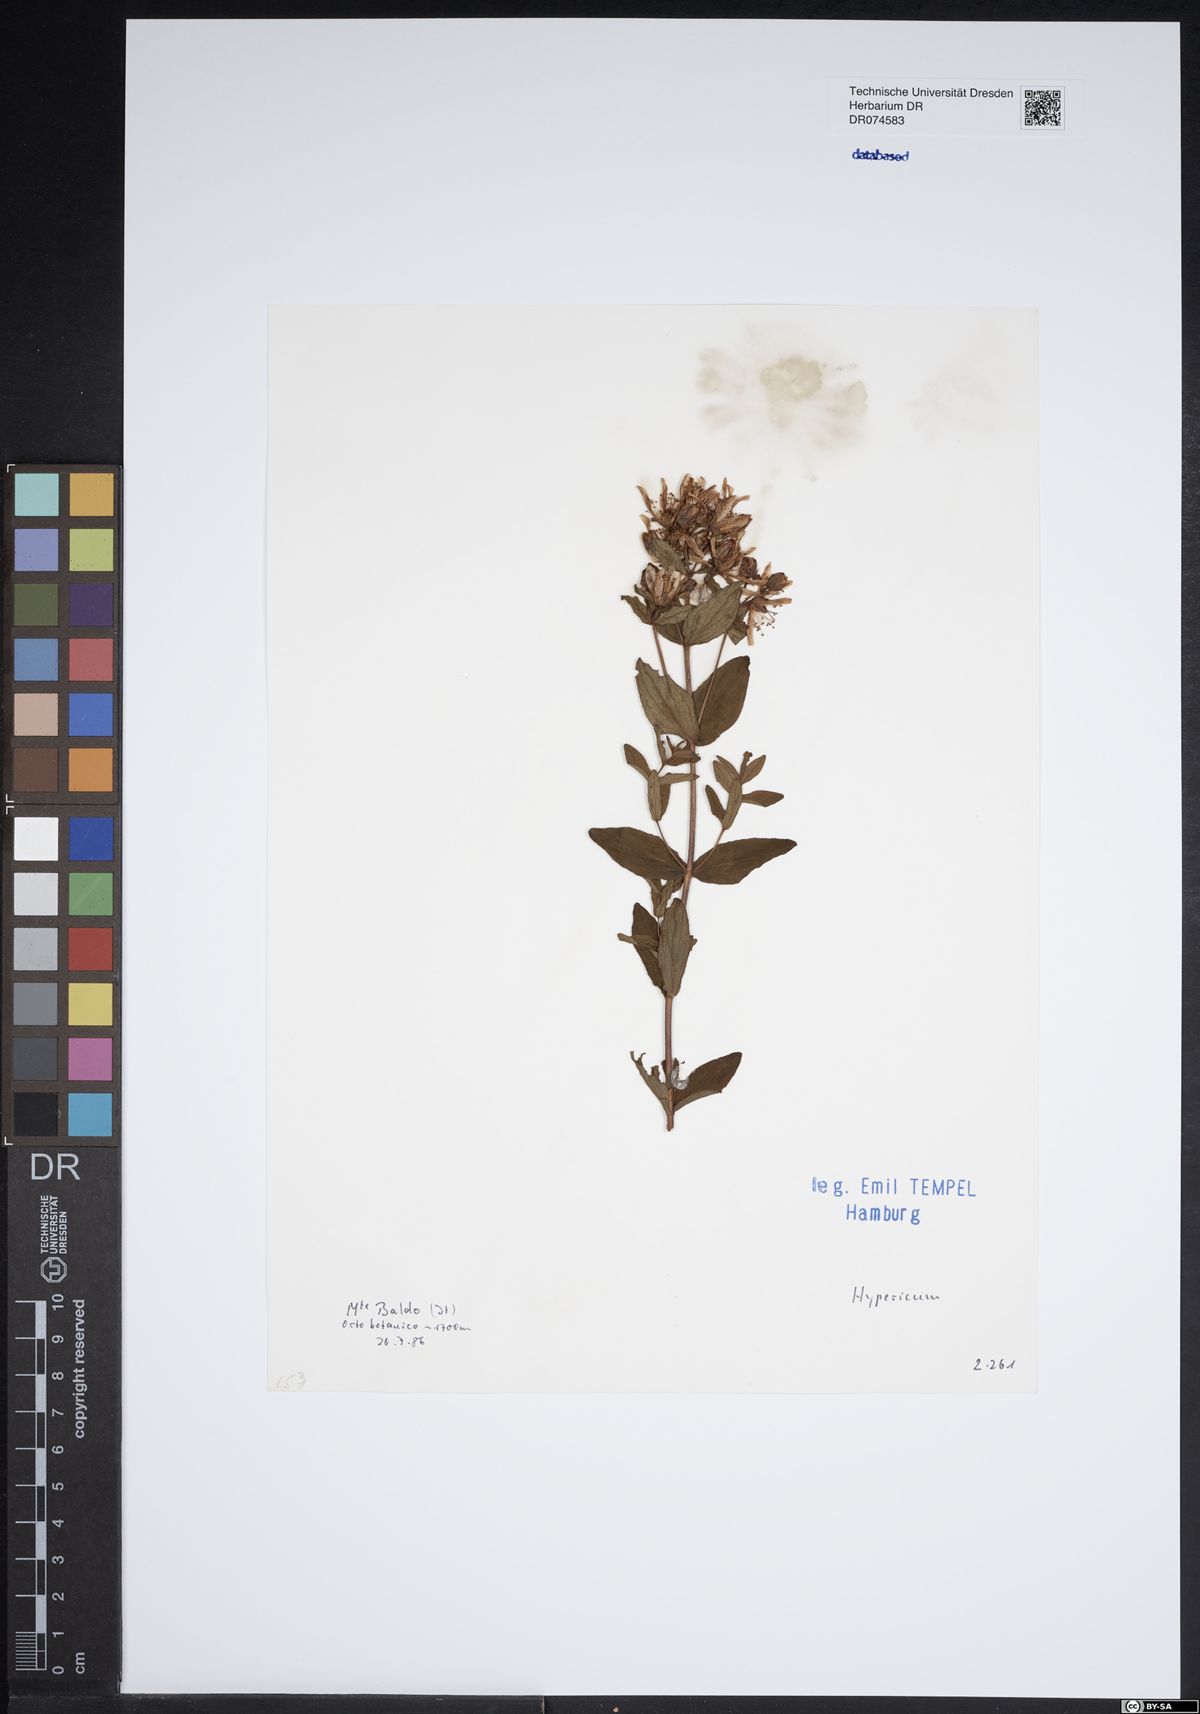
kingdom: Plantae
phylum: Tracheophyta
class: Magnoliopsida
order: Malpighiales
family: Hypericaceae
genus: Hypericum
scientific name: Hypericum
